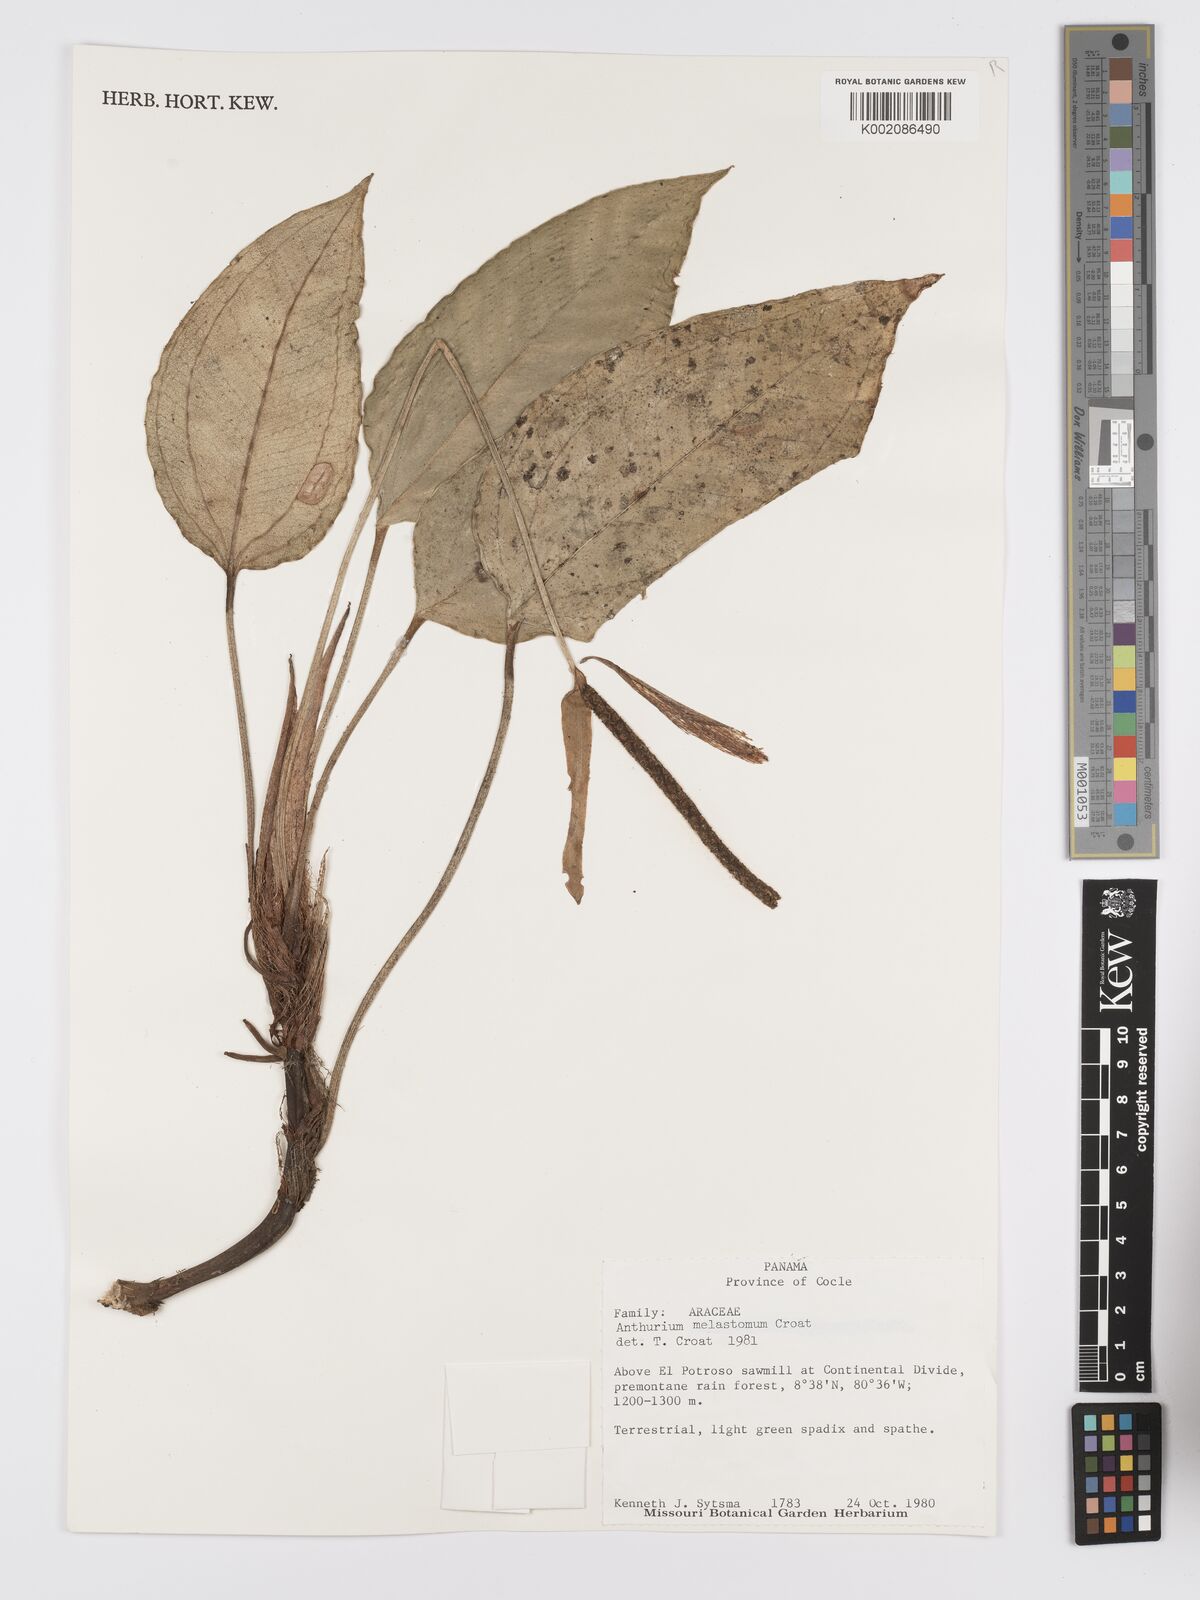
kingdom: Plantae
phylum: Tracheophyta
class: Liliopsida
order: Alismatales
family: Araceae
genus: Anthurium
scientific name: Anthurium melastomatis
